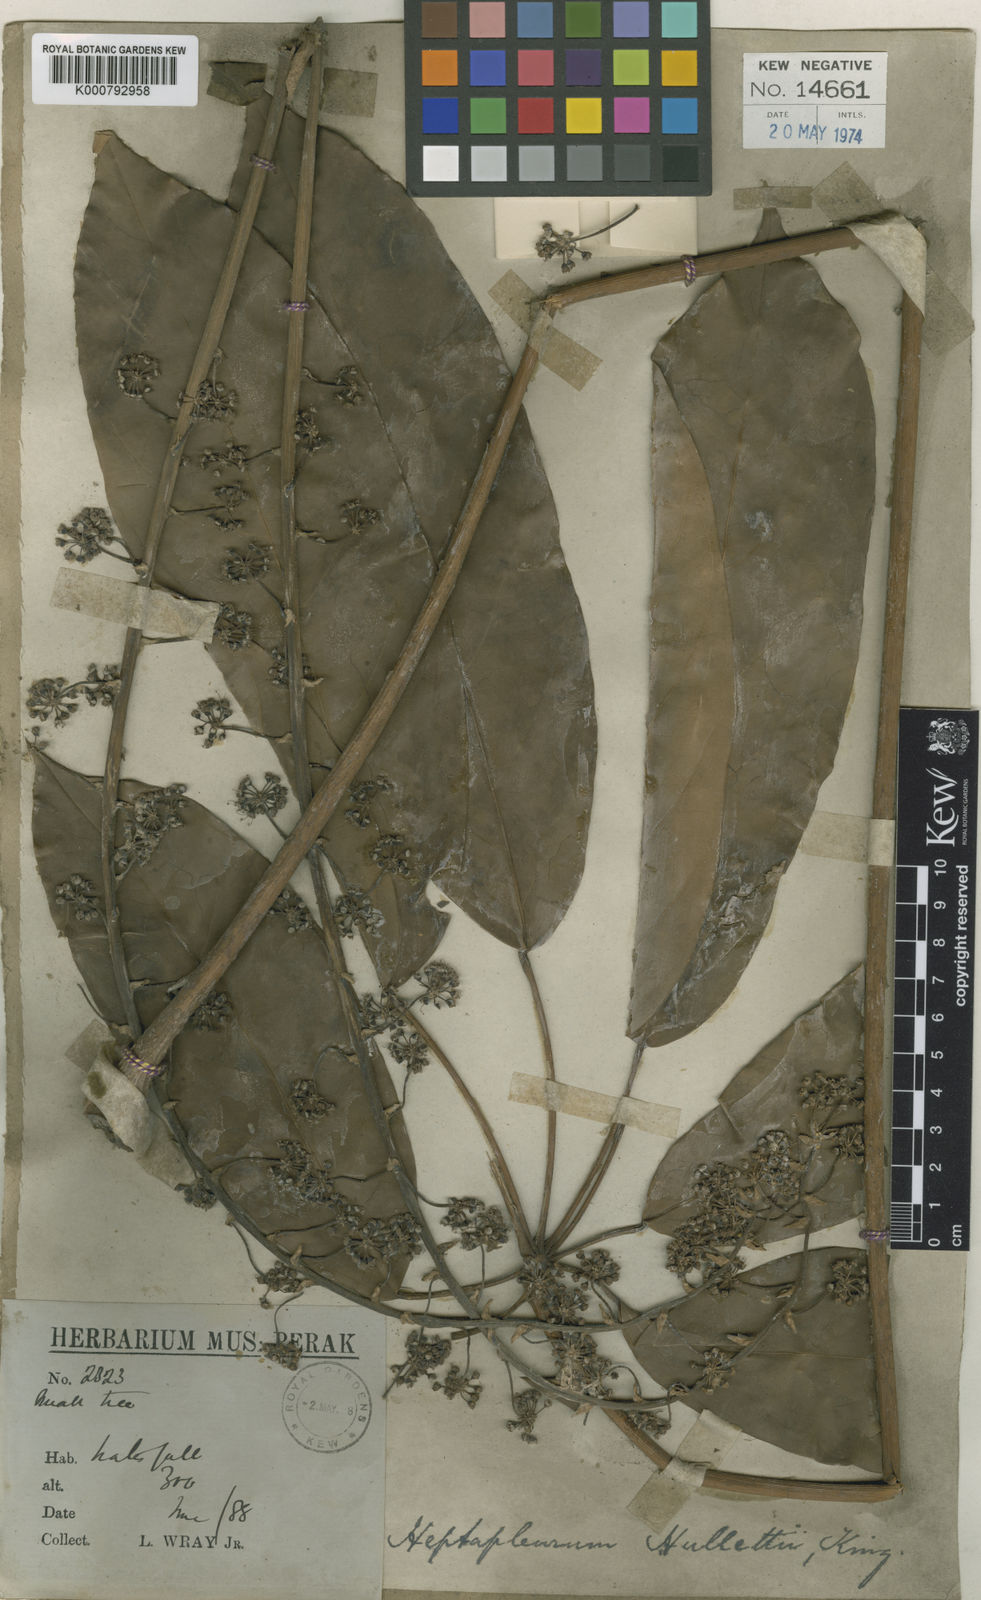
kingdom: Plantae
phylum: Tracheophyta
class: Magnoliopsida
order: Apiales
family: Araliaceae
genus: Heptapleurum
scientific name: Heptapleurum hullettii
